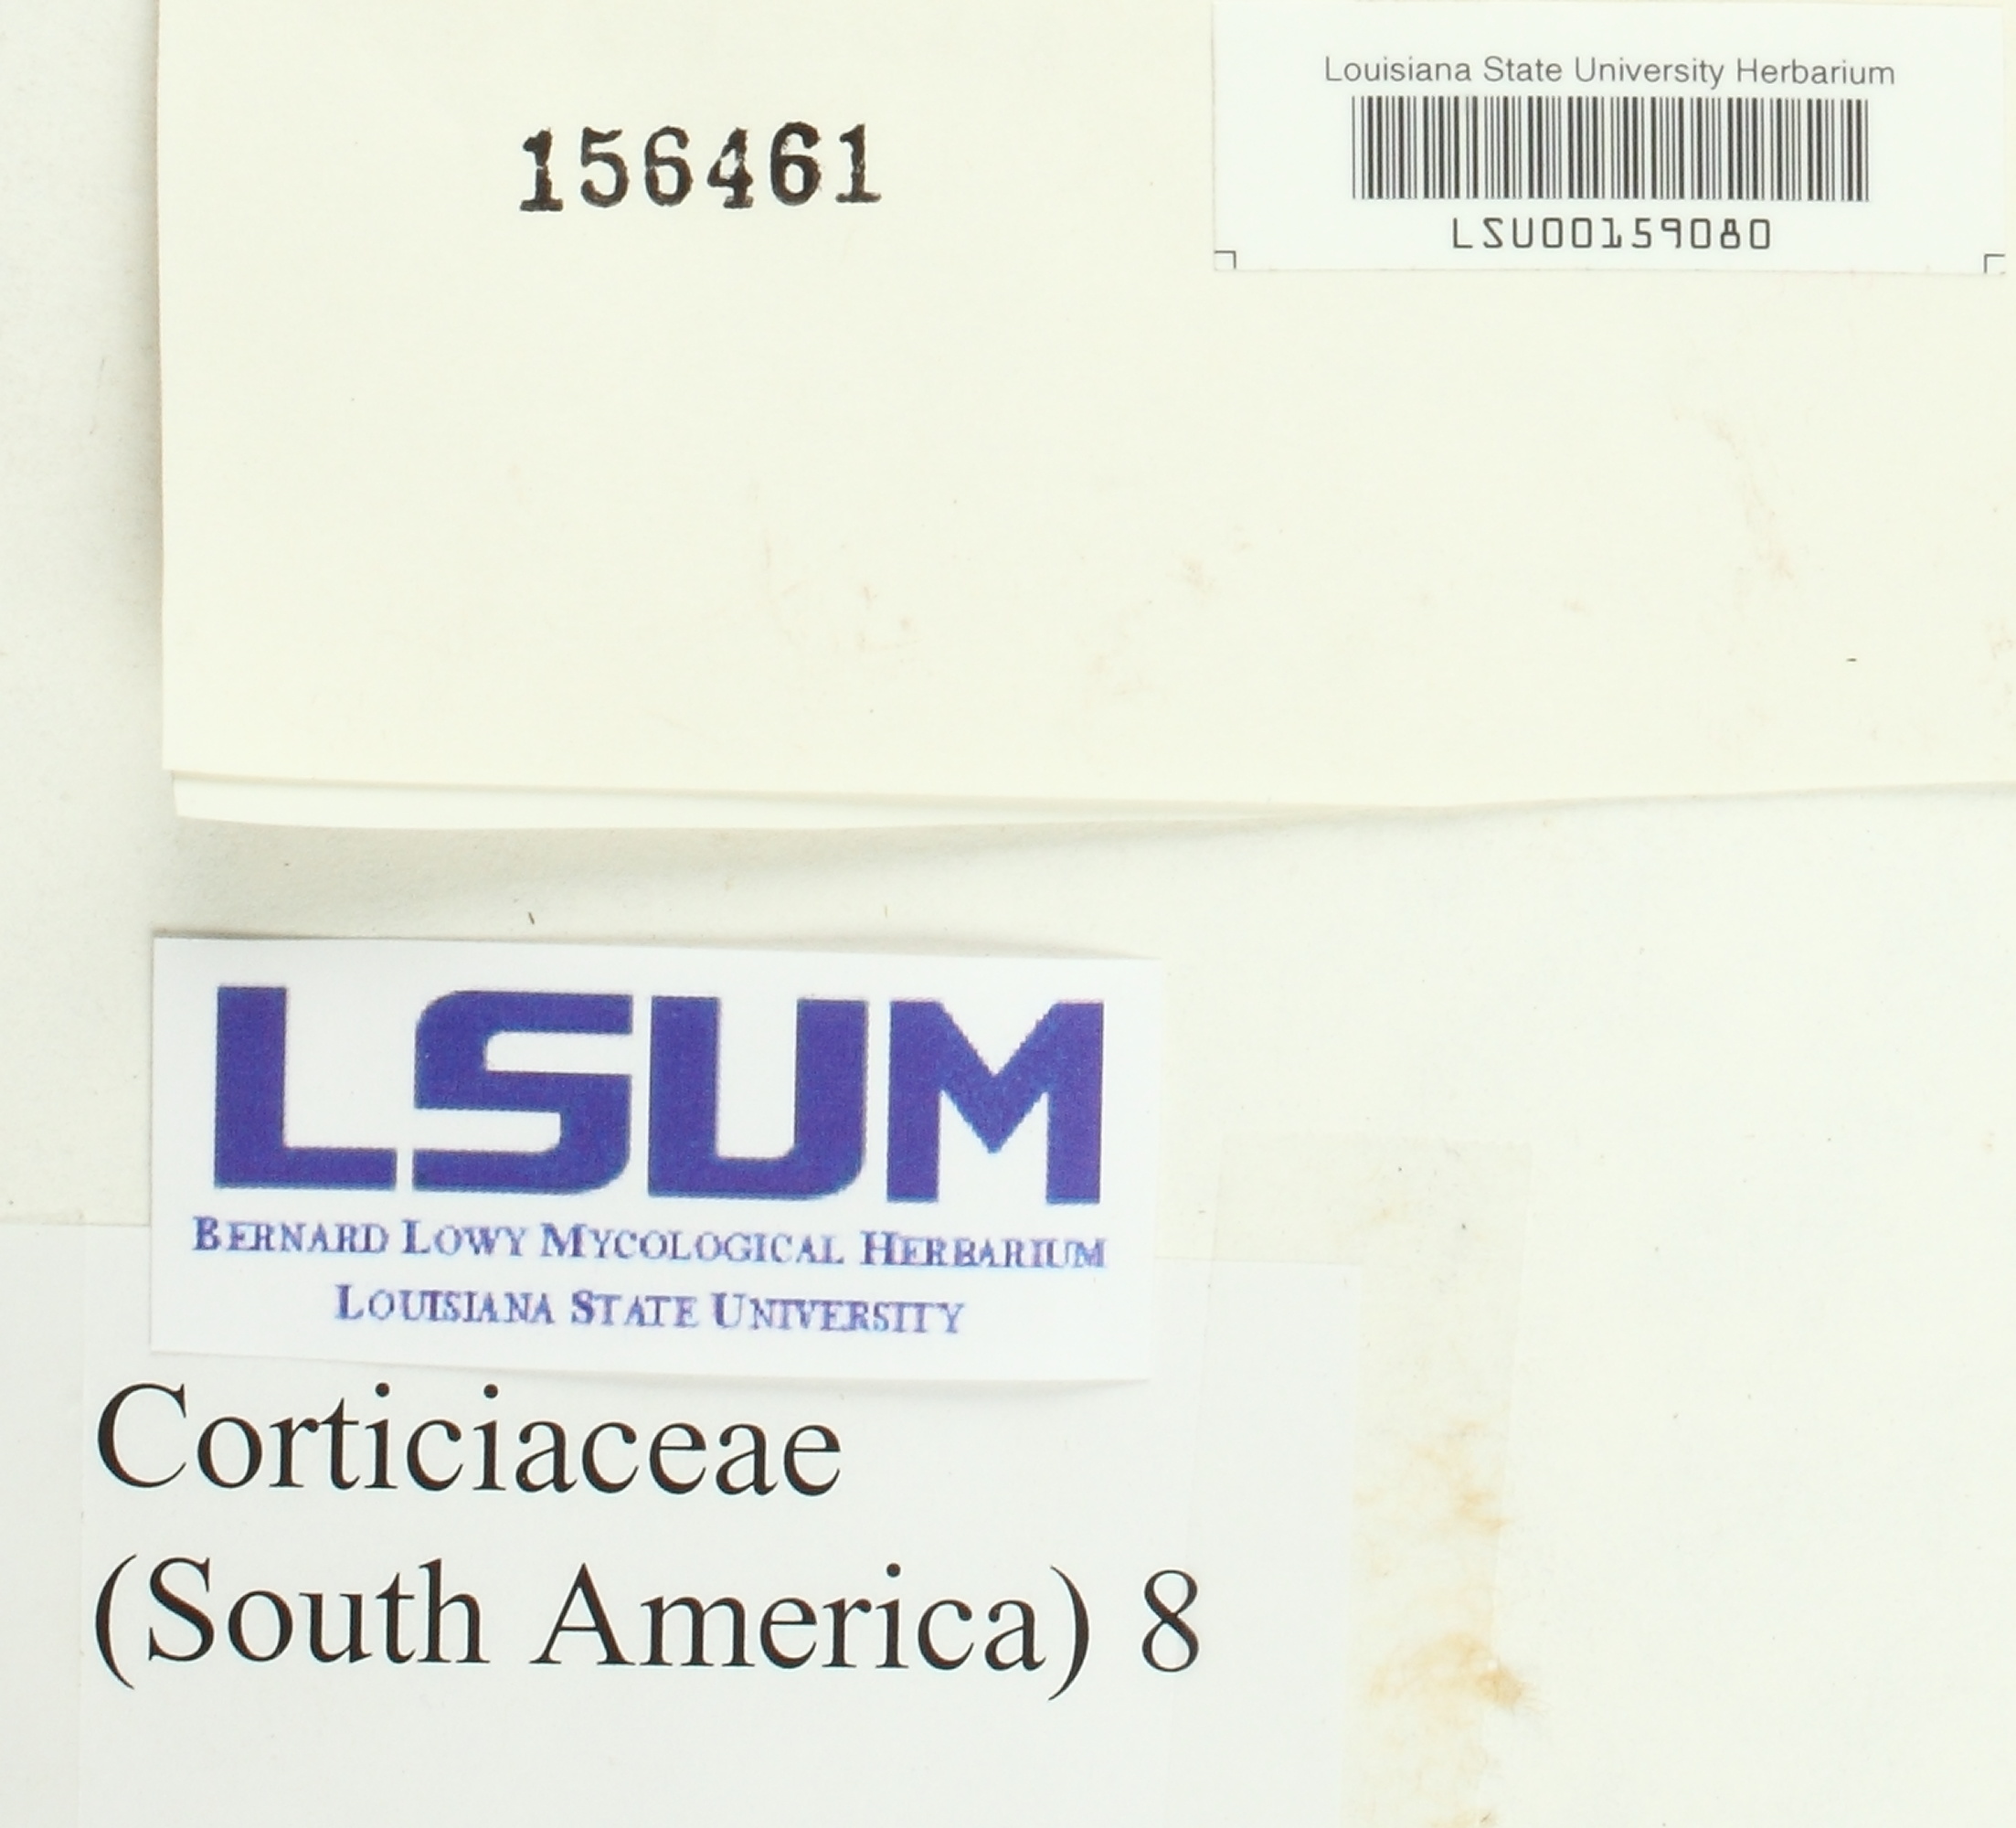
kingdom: Fungi
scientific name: Fungi
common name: Fungi
